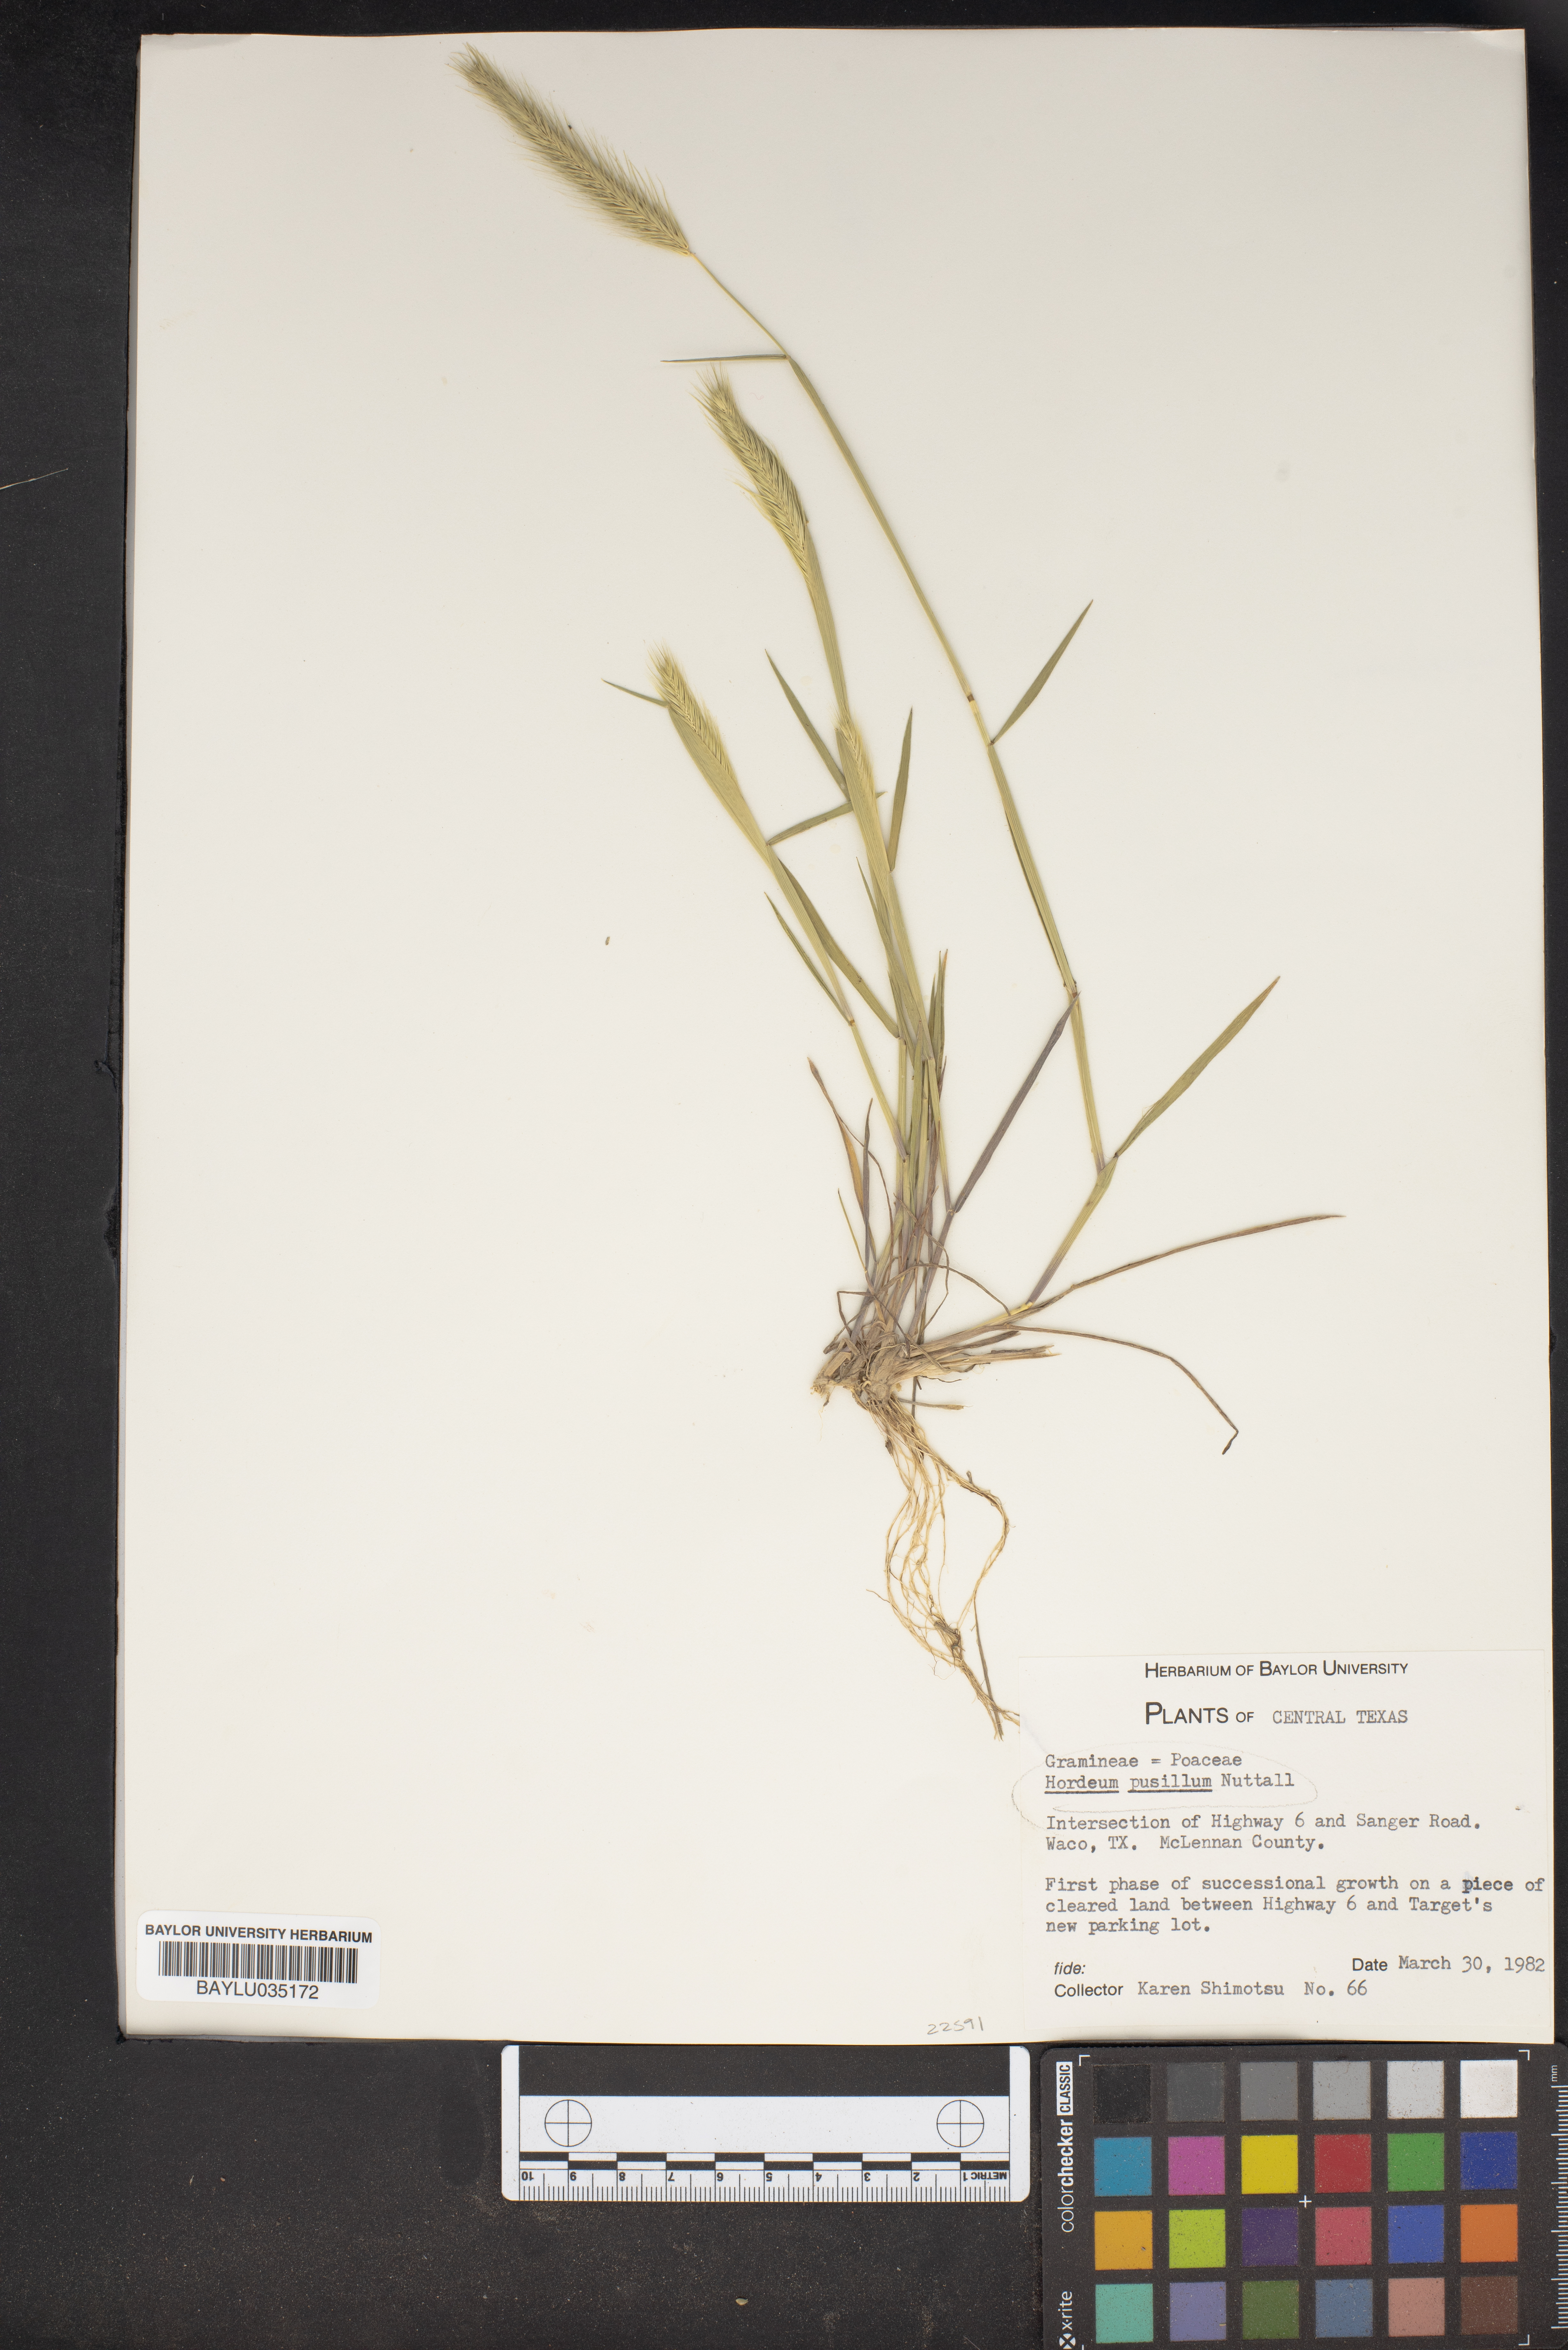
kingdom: Plantae
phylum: Tracheophyta
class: Liliopsida
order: Poales
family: Poaceae
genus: Hordeum
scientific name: Hordeum pusillum
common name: Little barley
